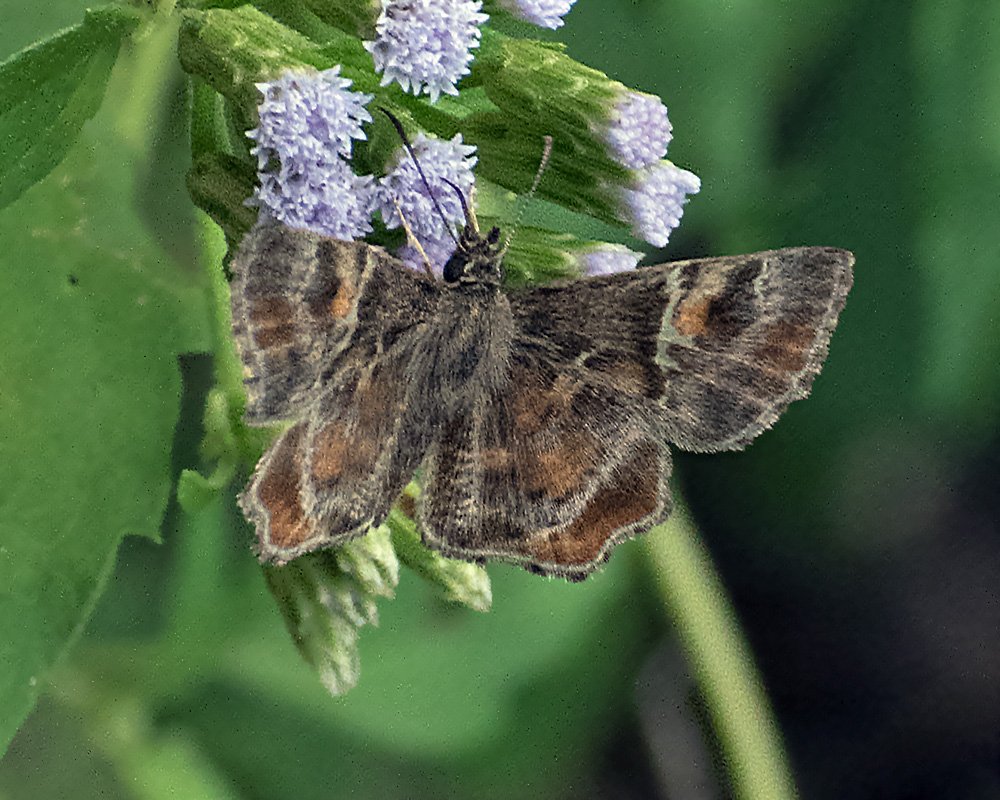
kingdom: Animalia
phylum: Arthropoda
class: Insecta
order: Lepidoptera
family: Hesperiidae
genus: Systasea
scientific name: Systasea pulverulenta
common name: Texas Powdered-Skipper
